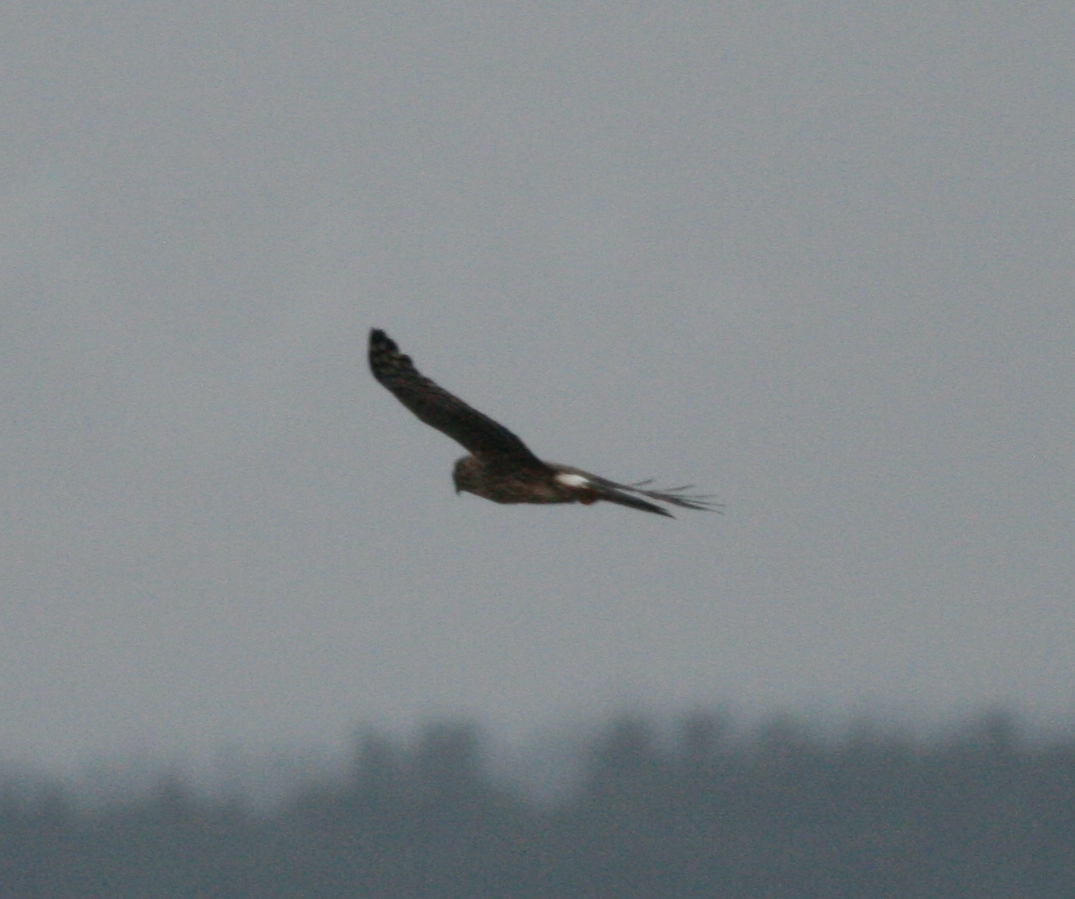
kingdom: Animalia
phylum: Chordata
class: Aves
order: Accipitriformes
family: Accipitridae
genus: Circus
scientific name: Circus cyaneus
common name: Blå kærhøg
